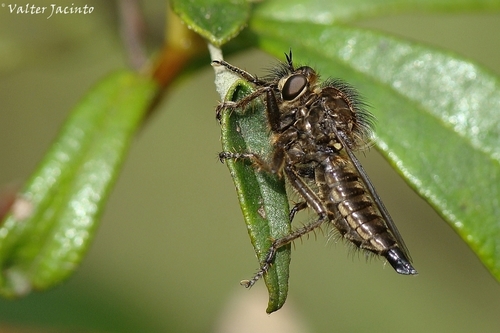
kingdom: Animalia
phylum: Arthropoda
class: Insecta
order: Diptera
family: Asilidae
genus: Dysmachus
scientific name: Dysmachus
